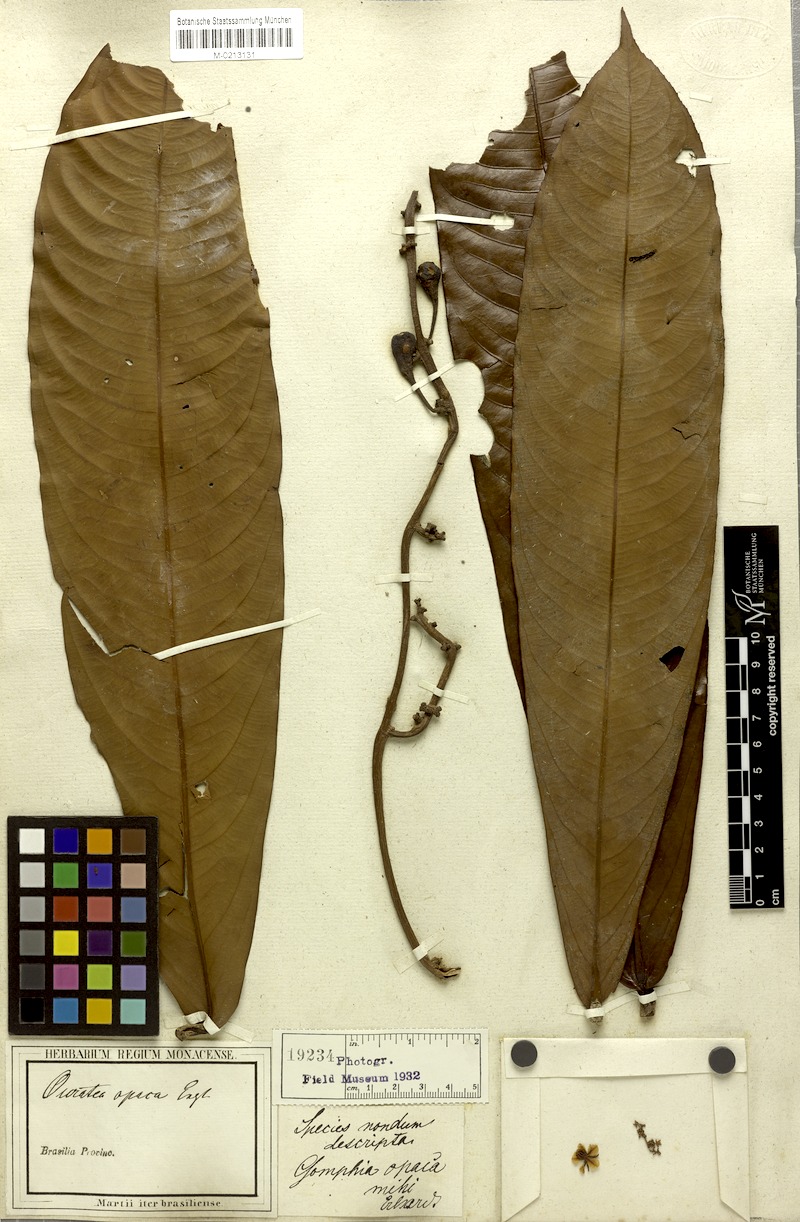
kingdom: Plantae
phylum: Tracheophyta
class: Magnoliopsida
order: Malpighiales
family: Ochnaceae
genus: Ouratea
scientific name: Ouratea opaca
